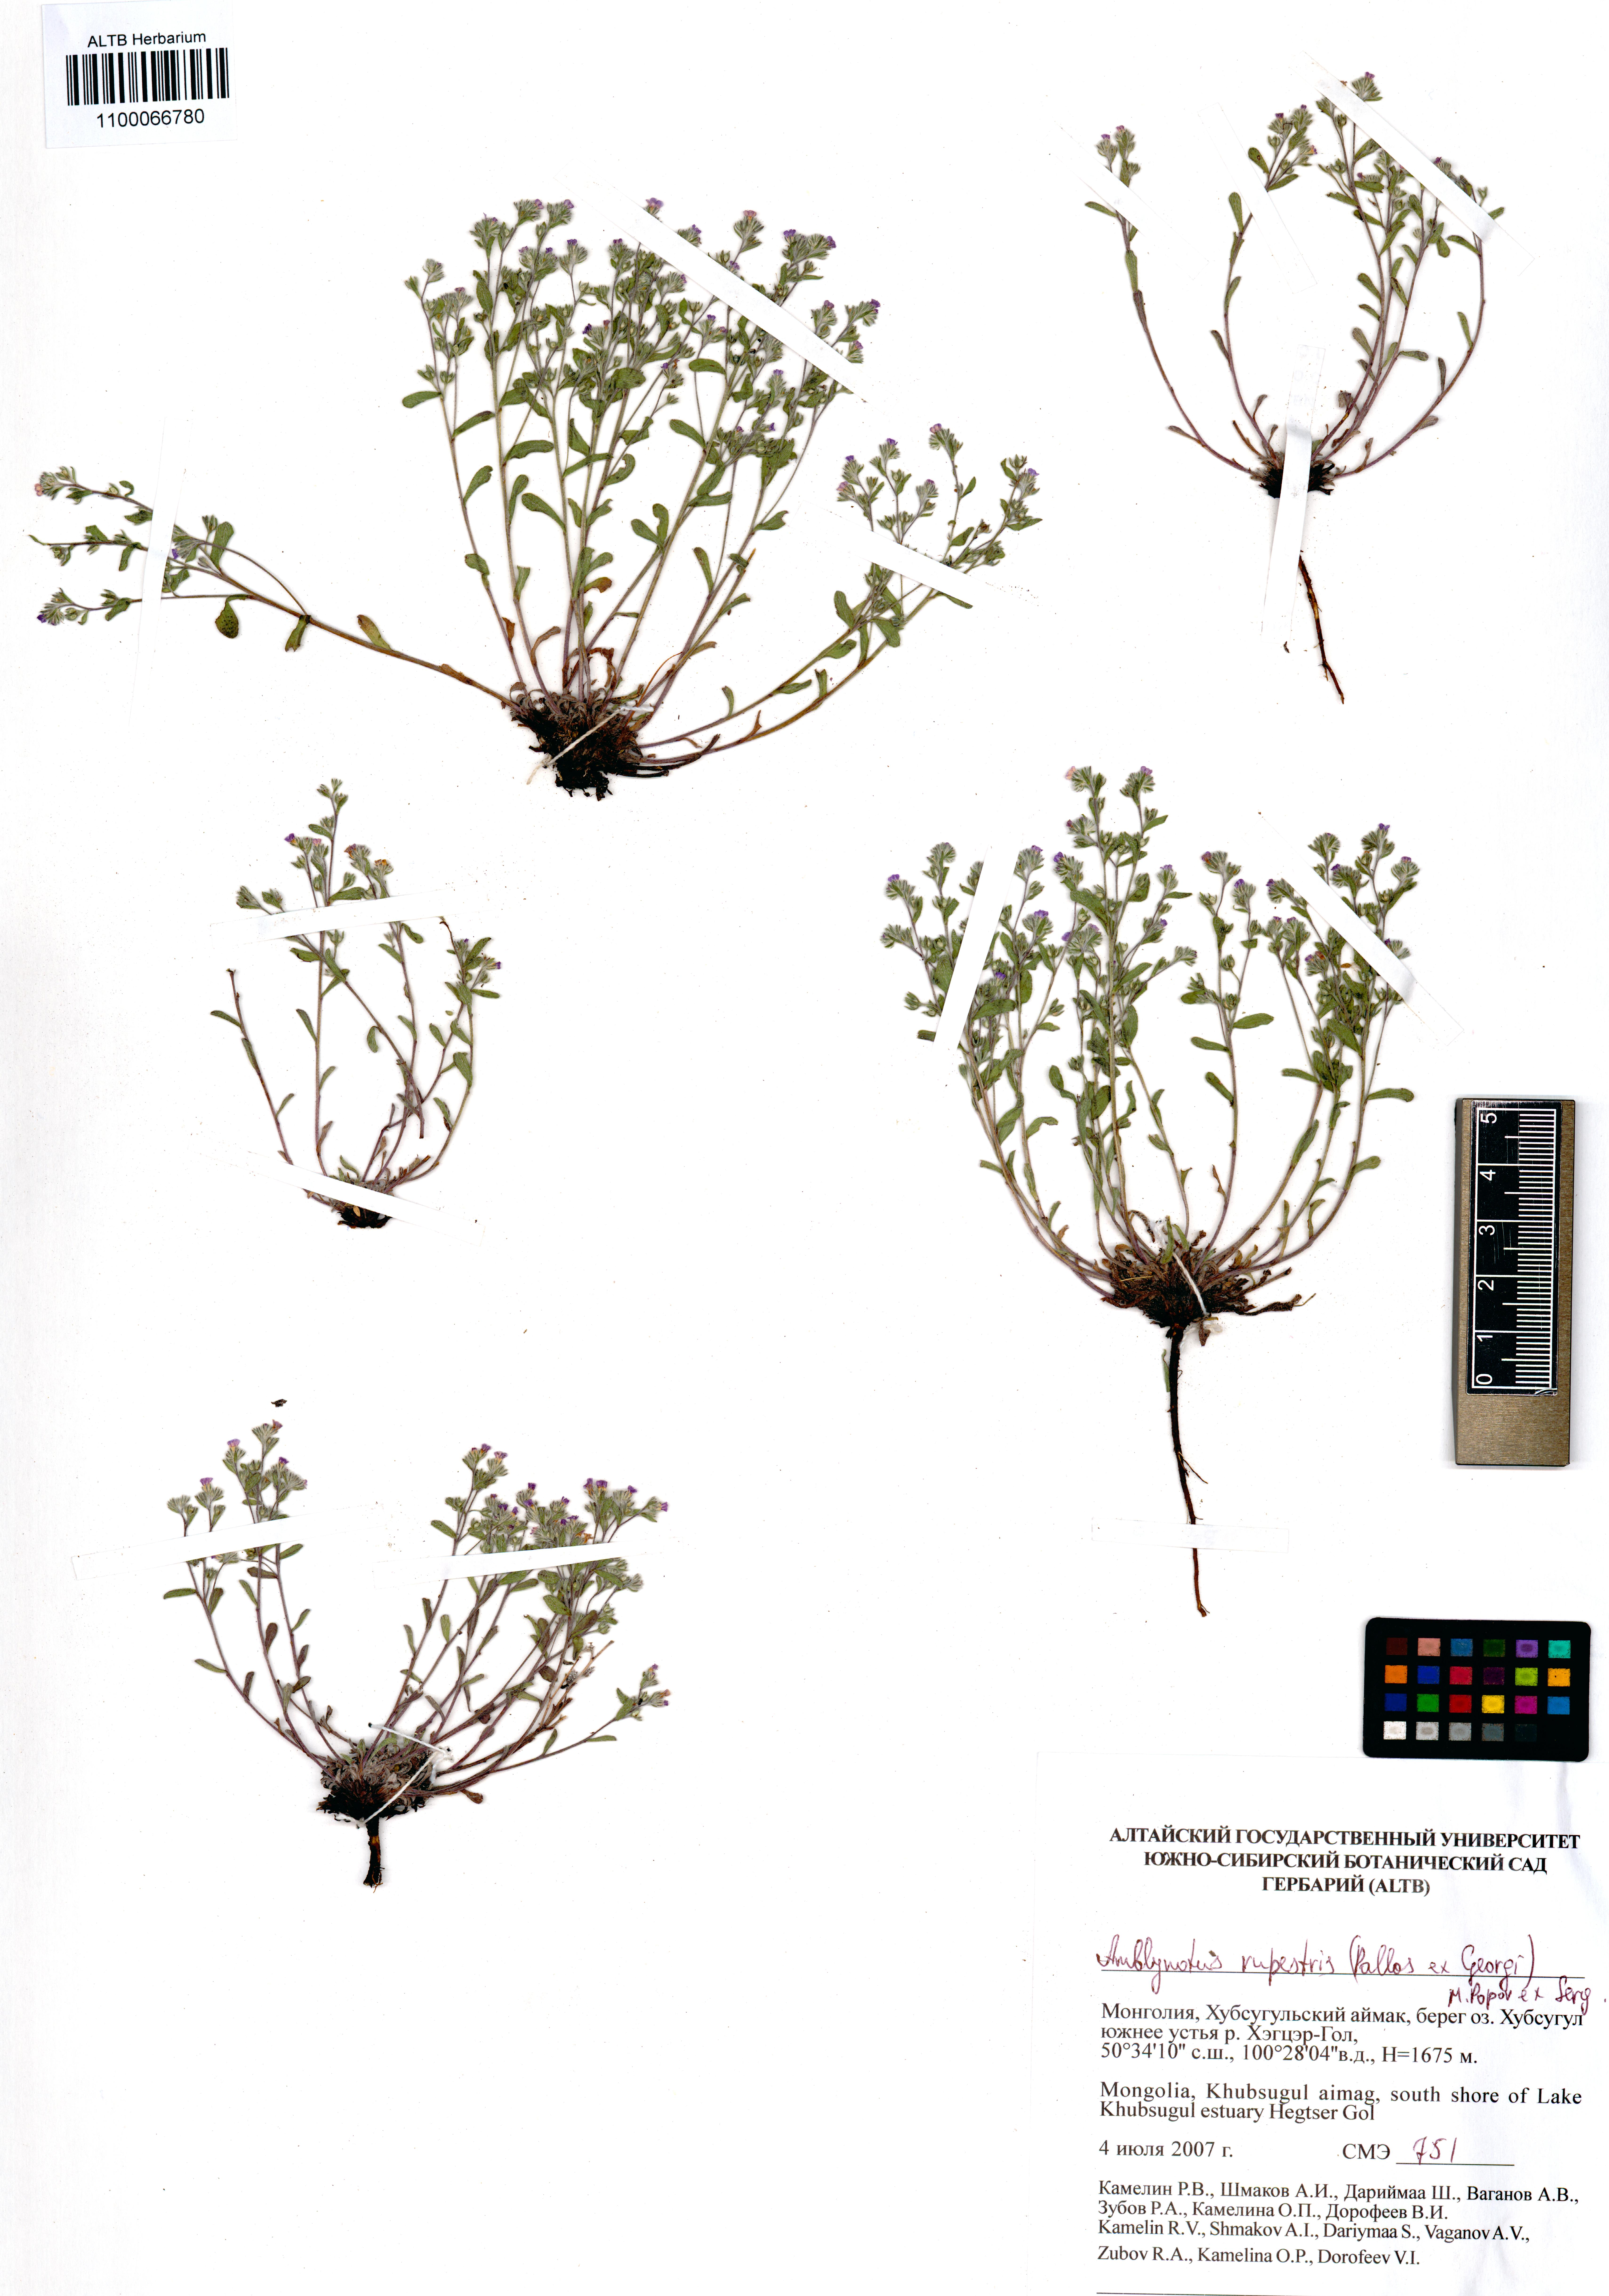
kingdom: Plantae
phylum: Tracheophyta
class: Magnoliopsida
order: Boraginales
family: Boraginaceae
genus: Eritrichium
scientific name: Eritrichium rupestre
